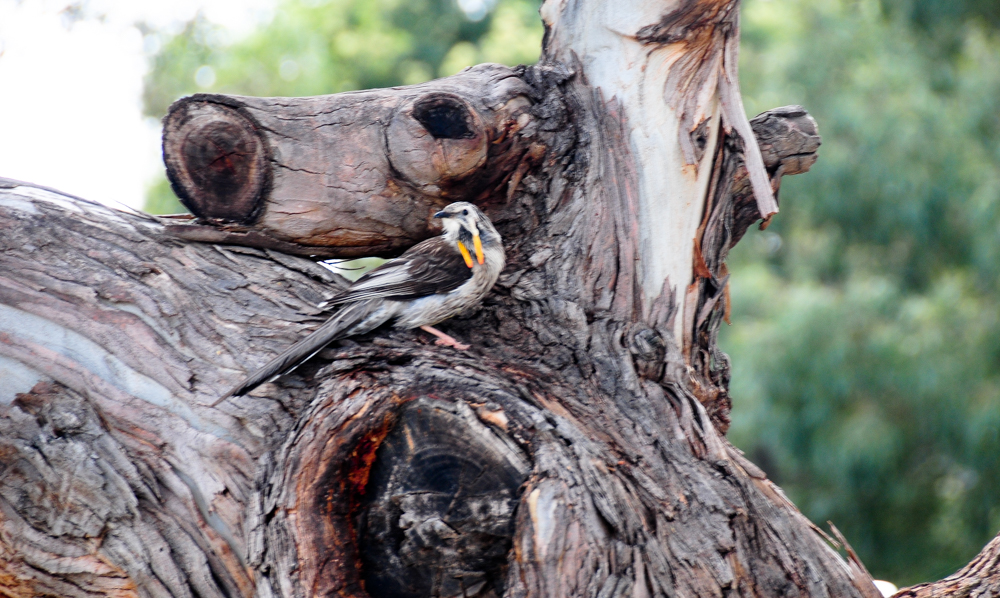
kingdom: Animalia
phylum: Chordata
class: Aves
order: Passeriformes
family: Meliphagidae
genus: Anthochaera
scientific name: Anthochaera paradoxa
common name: Yellow wattlebird
